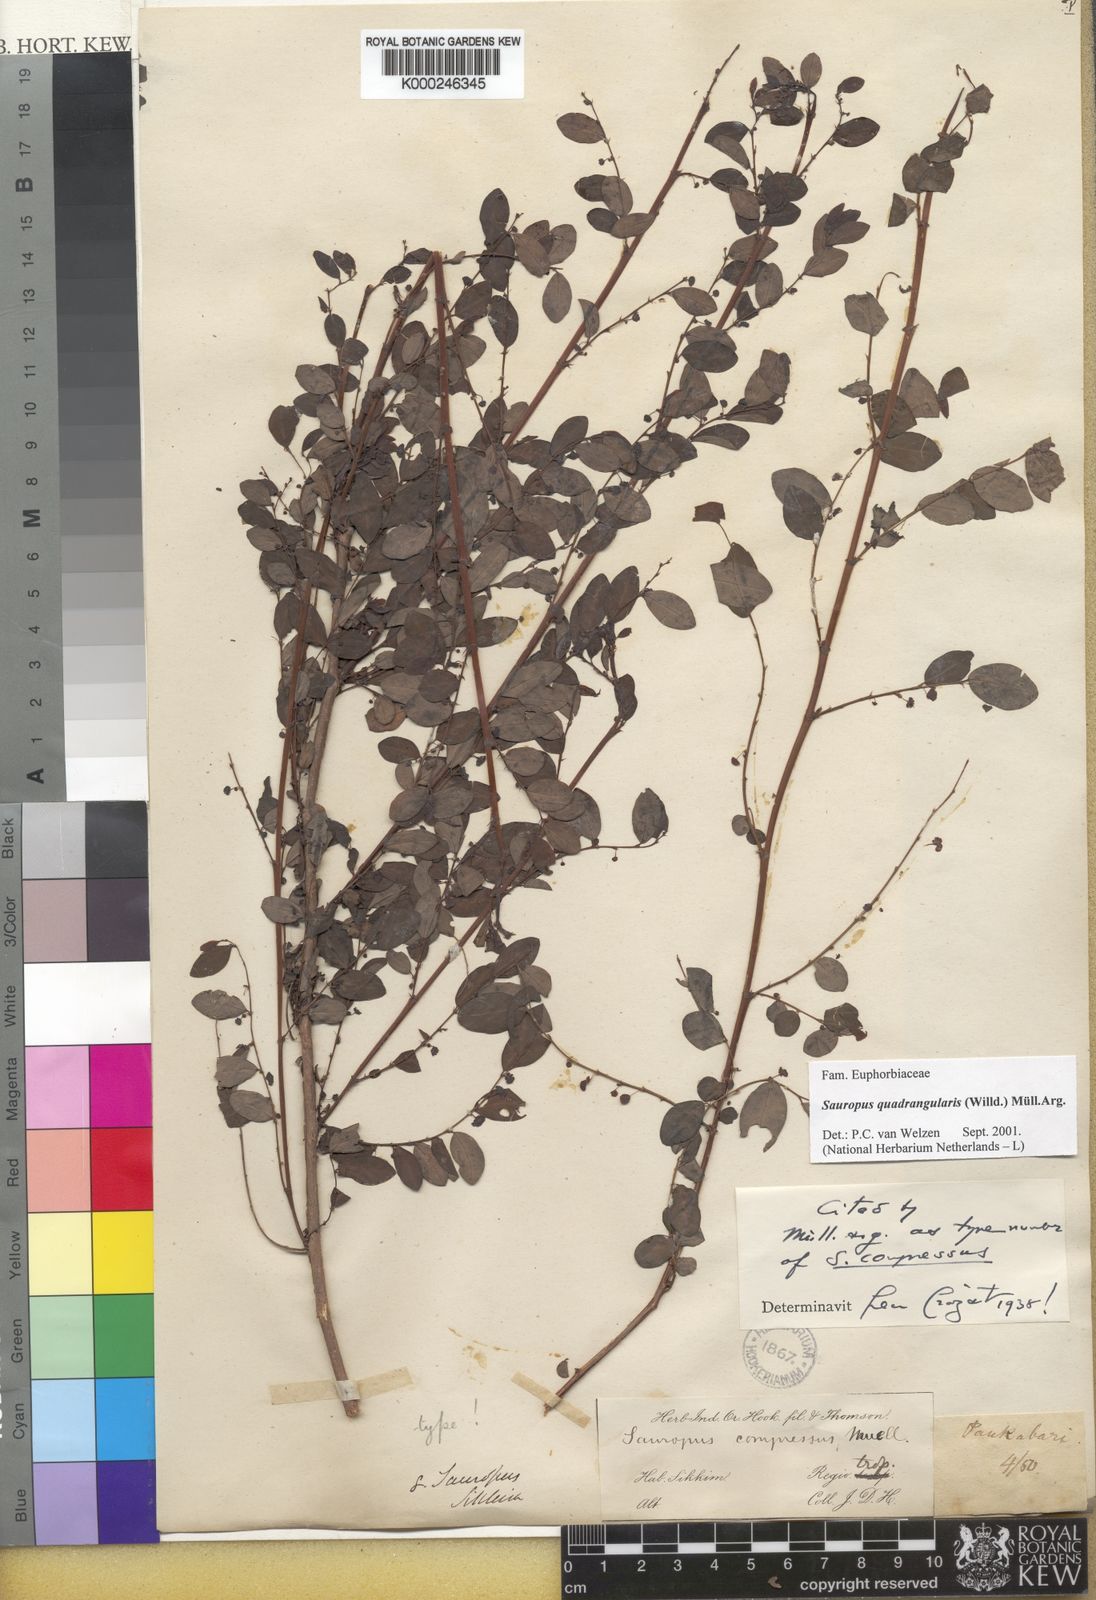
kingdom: Animalia
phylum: Chordata
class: Amphibia
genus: Sauropus
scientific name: Sauropus
